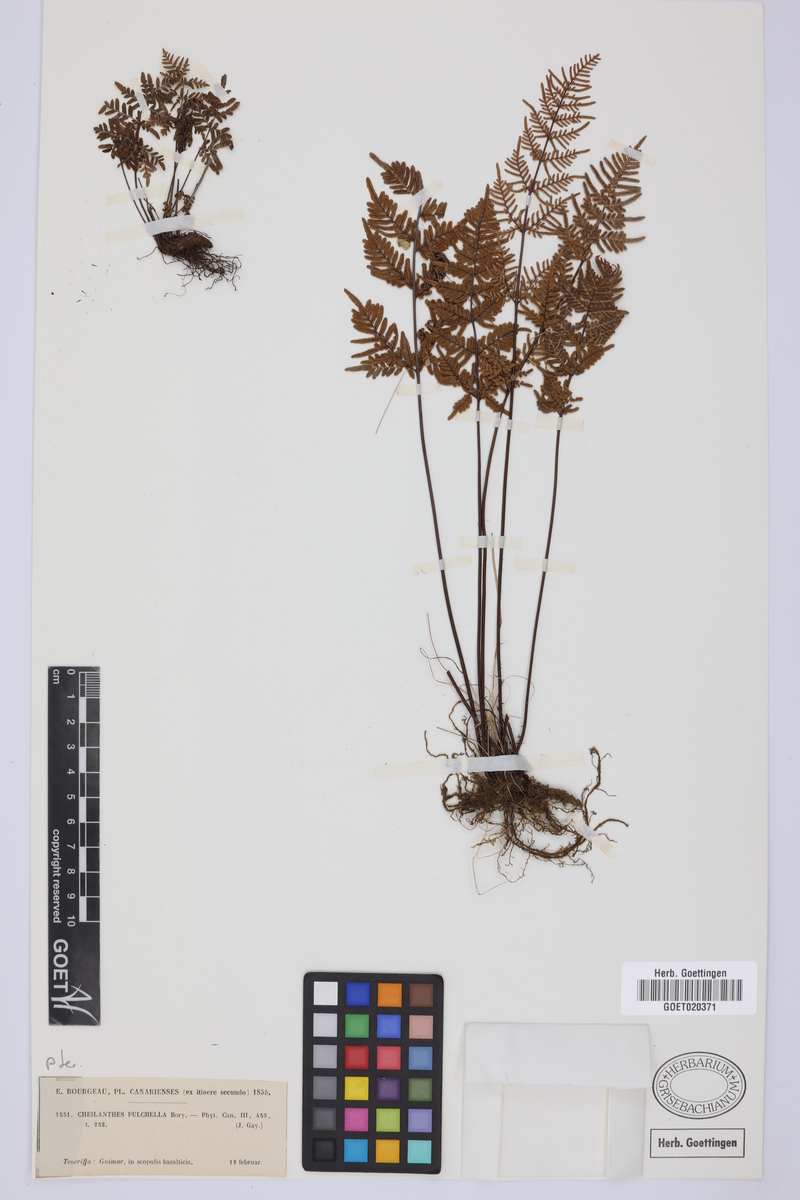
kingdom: Plantae
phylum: Tracheophyta
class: Polypodiopsida
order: Polypodiales
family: Pteridaceae
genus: Oeosporangium
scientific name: Oeosporangium pulchellum
